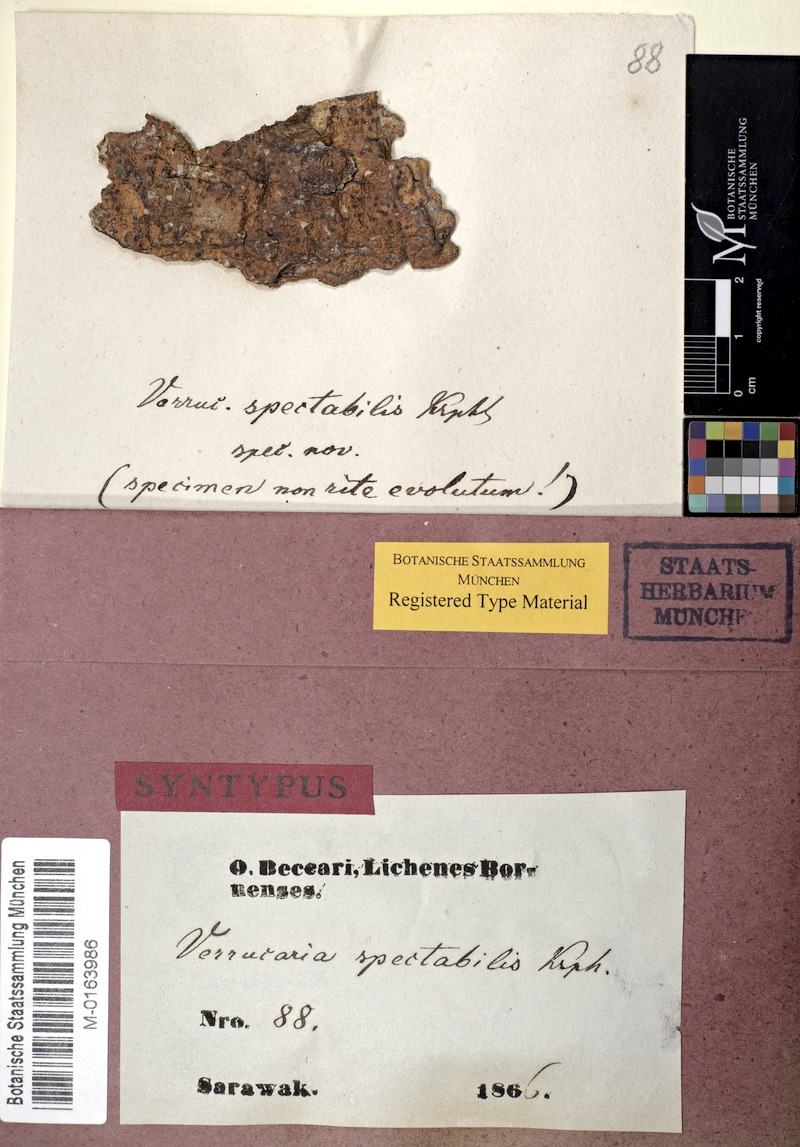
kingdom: Fungi
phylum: Ascomycota
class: Lecanoromycetes
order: Pertusariales
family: Pertusariaceae
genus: Porina
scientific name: Porina
